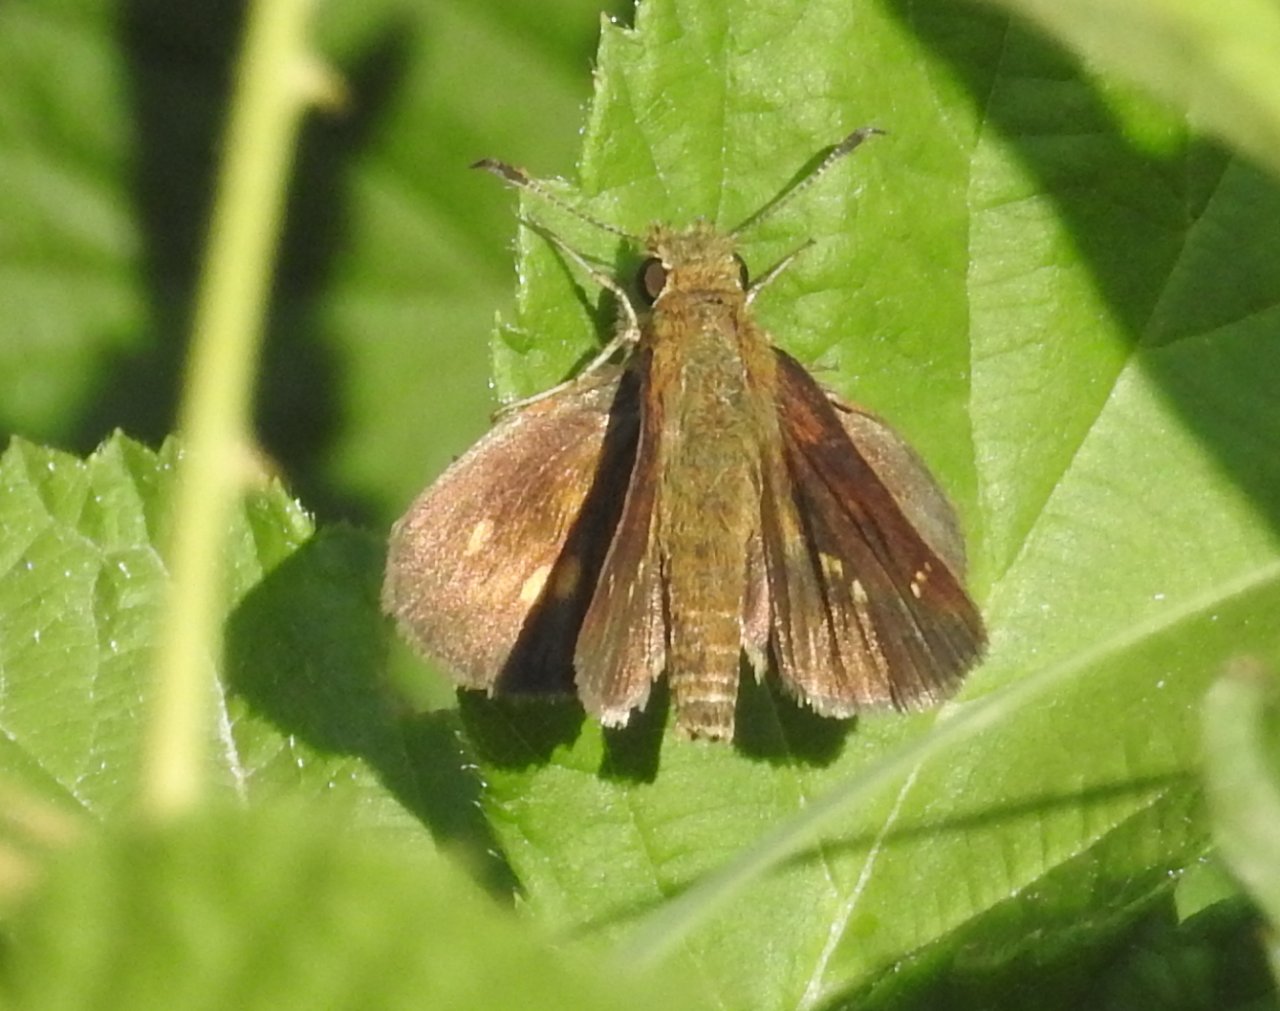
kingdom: Animalia
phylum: Arthropoda
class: Insecta
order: Lepidoptera
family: Hesperiidae
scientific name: Hesperiidae
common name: Skippers
